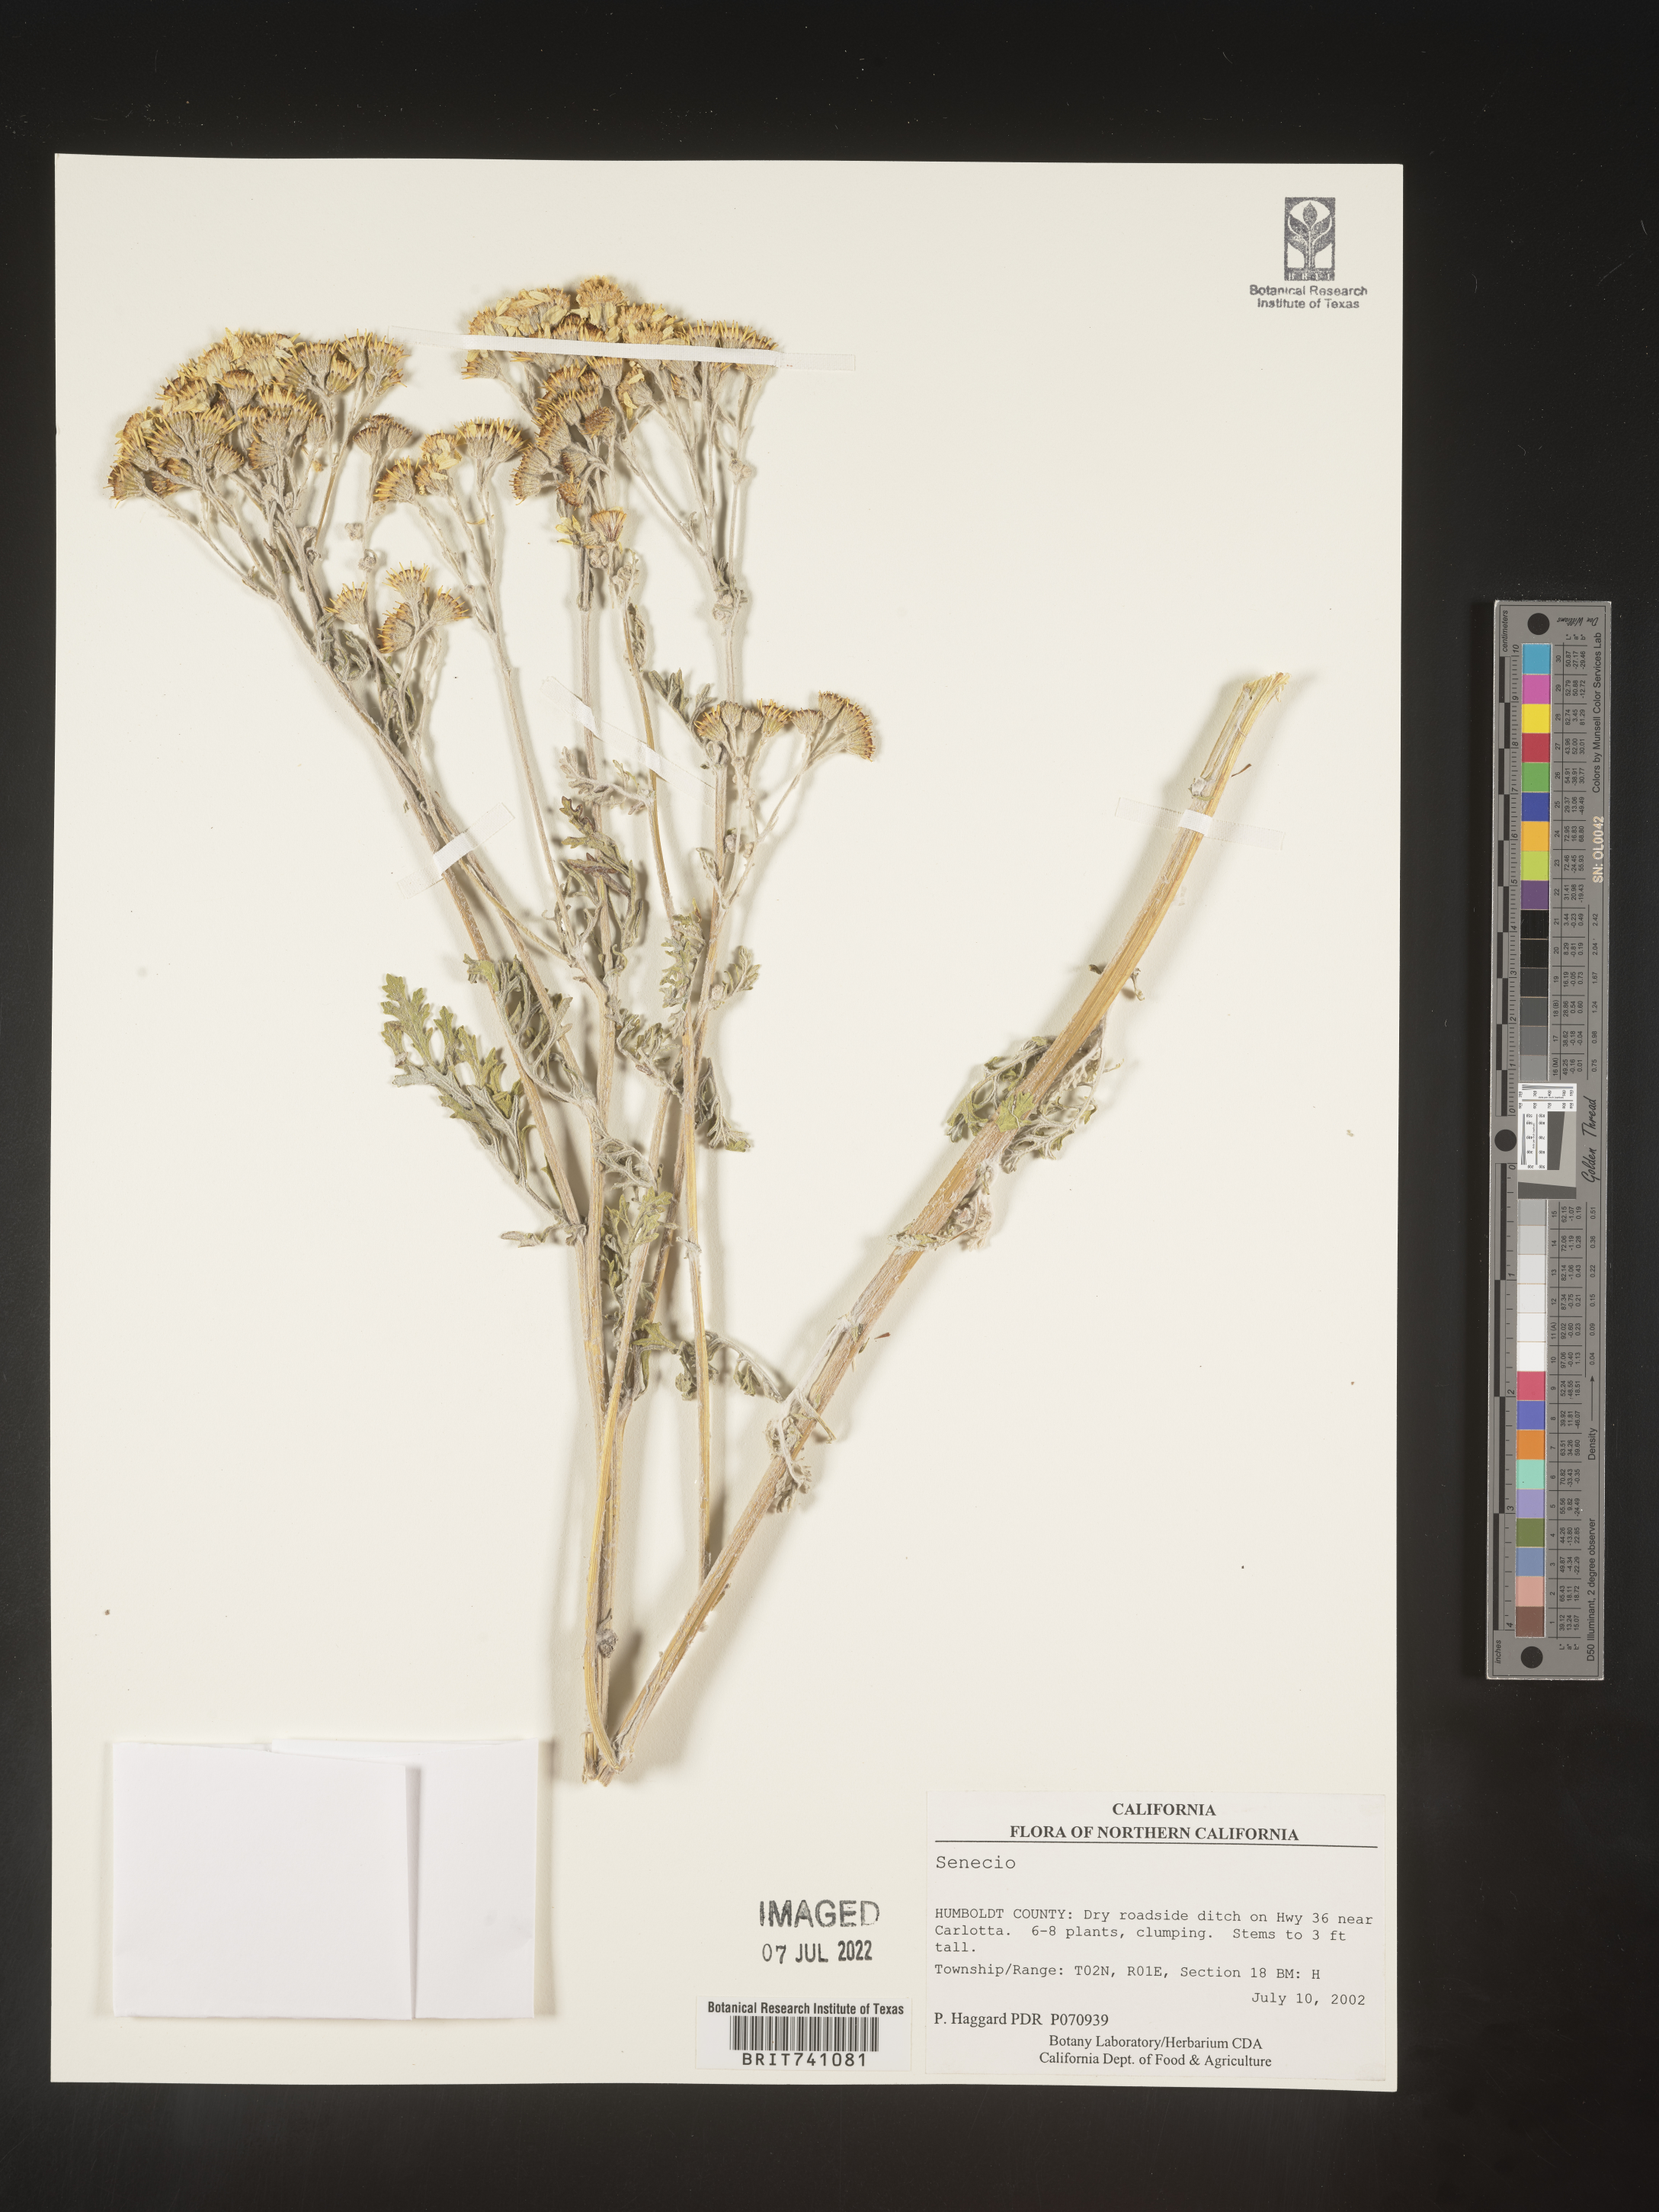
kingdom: Plantae
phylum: Tracheophyta
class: Magnoliopsida
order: Asterales
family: Asteraceae
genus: Senecio
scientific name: Senecio
